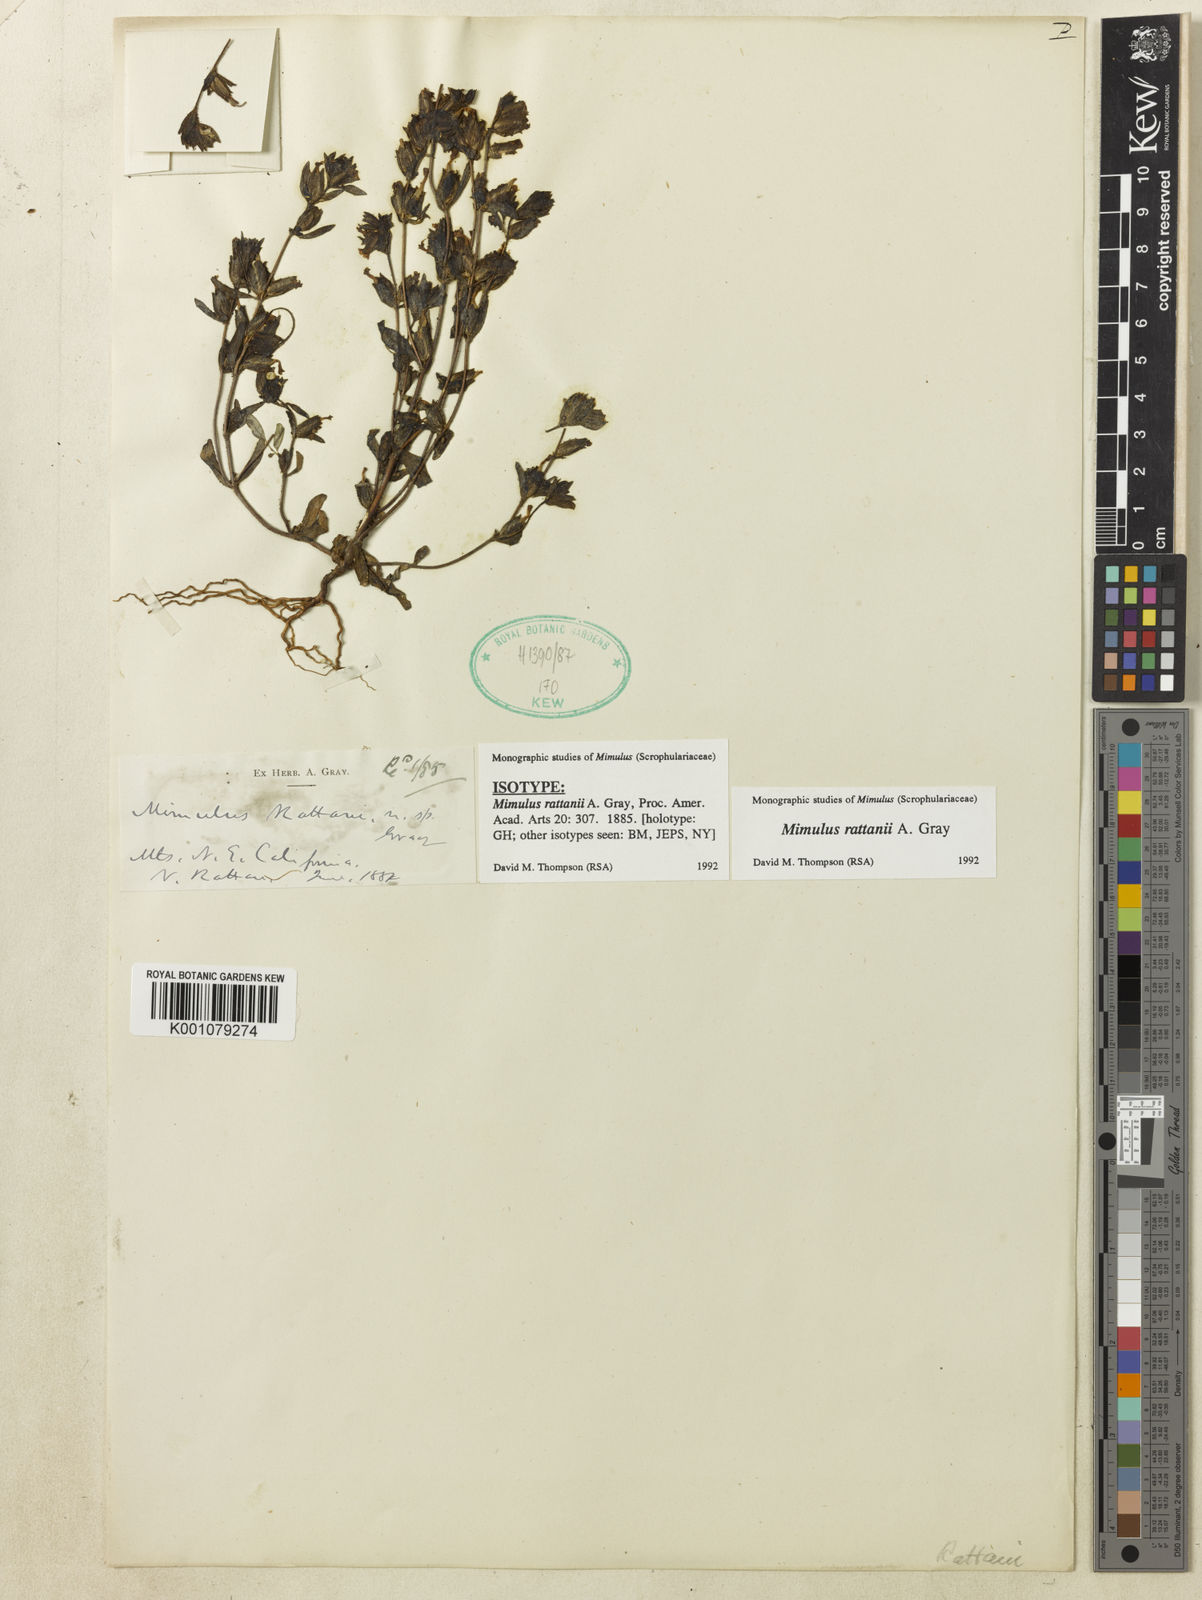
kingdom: Plantae
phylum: Tracheophyta
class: Magnoliopsida
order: Lamiales
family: Phrymaceae
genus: Diplacus
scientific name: Diplacus rattanii
